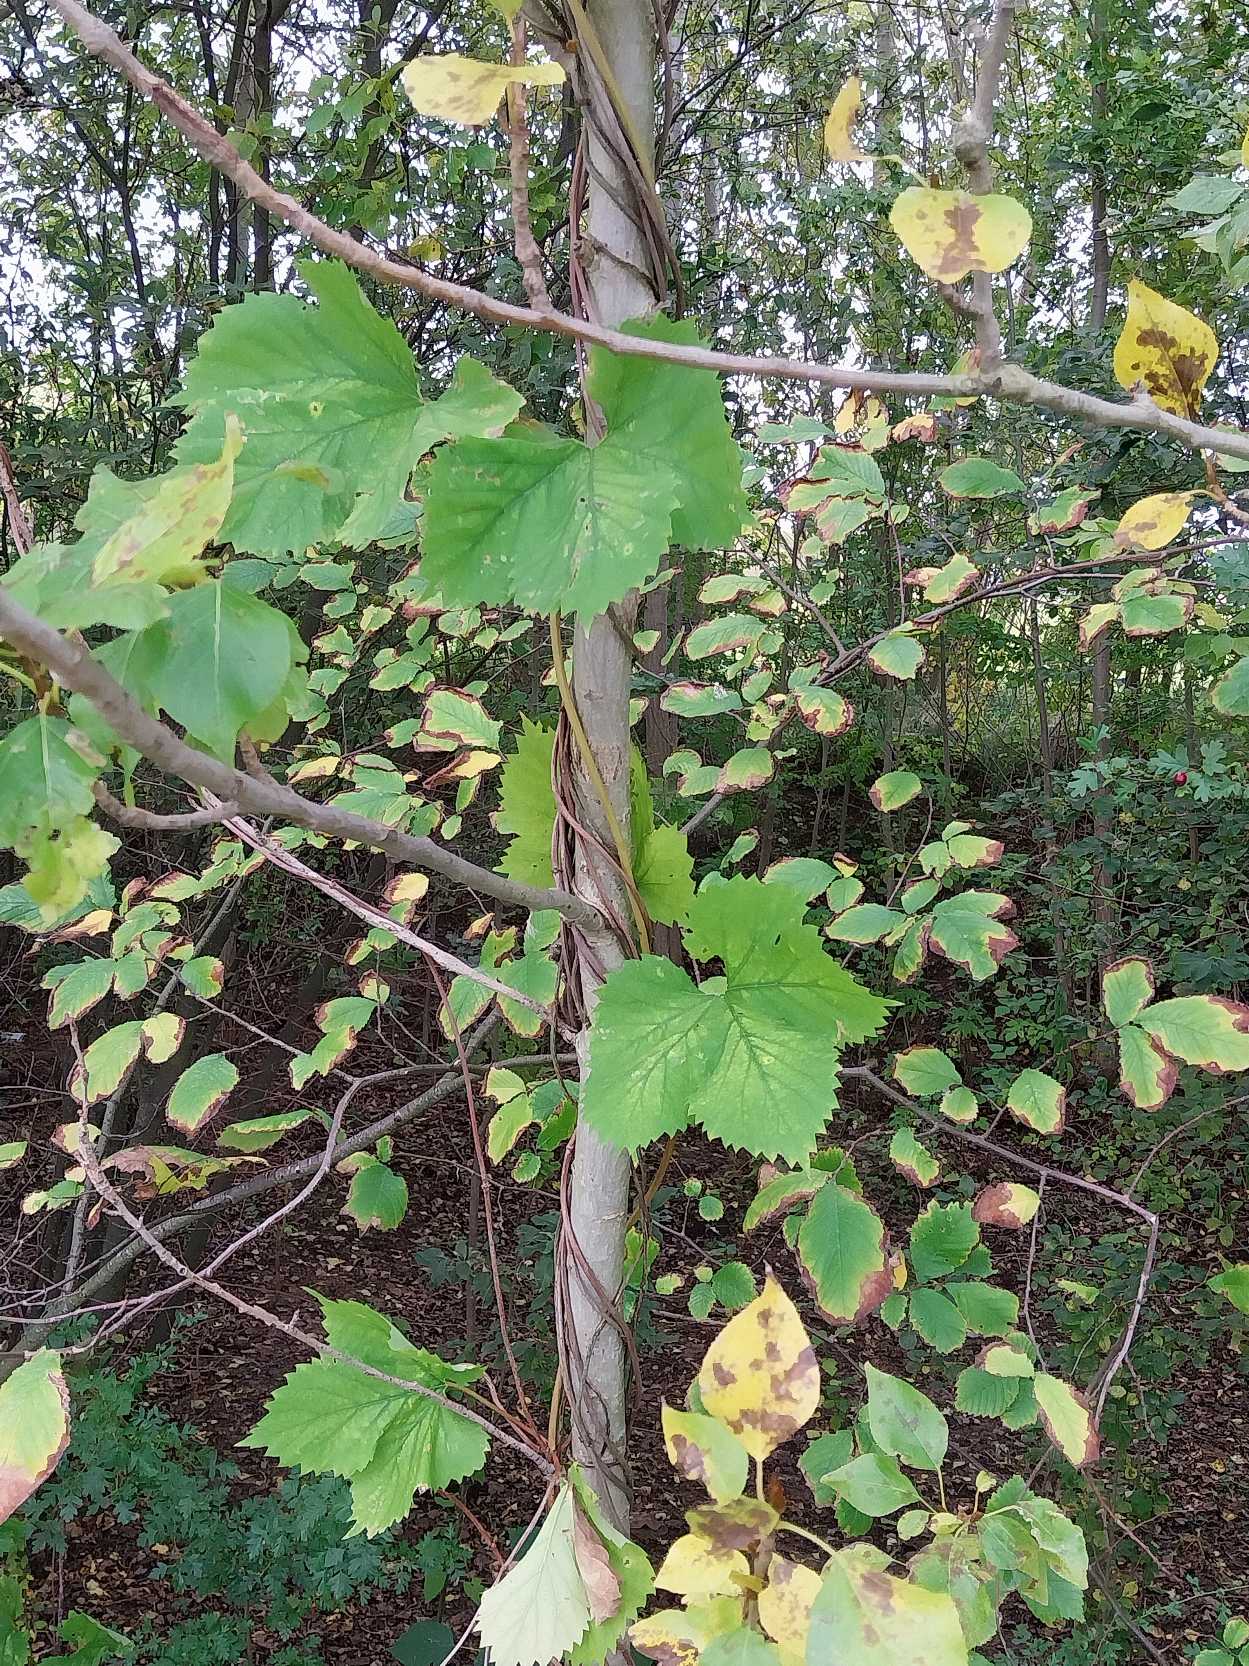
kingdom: Plantae
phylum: Tracheophyta
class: Magnoliopsida
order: Rosales
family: Cannabaceae
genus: Humulus
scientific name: Humulus lupulus
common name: Humle
